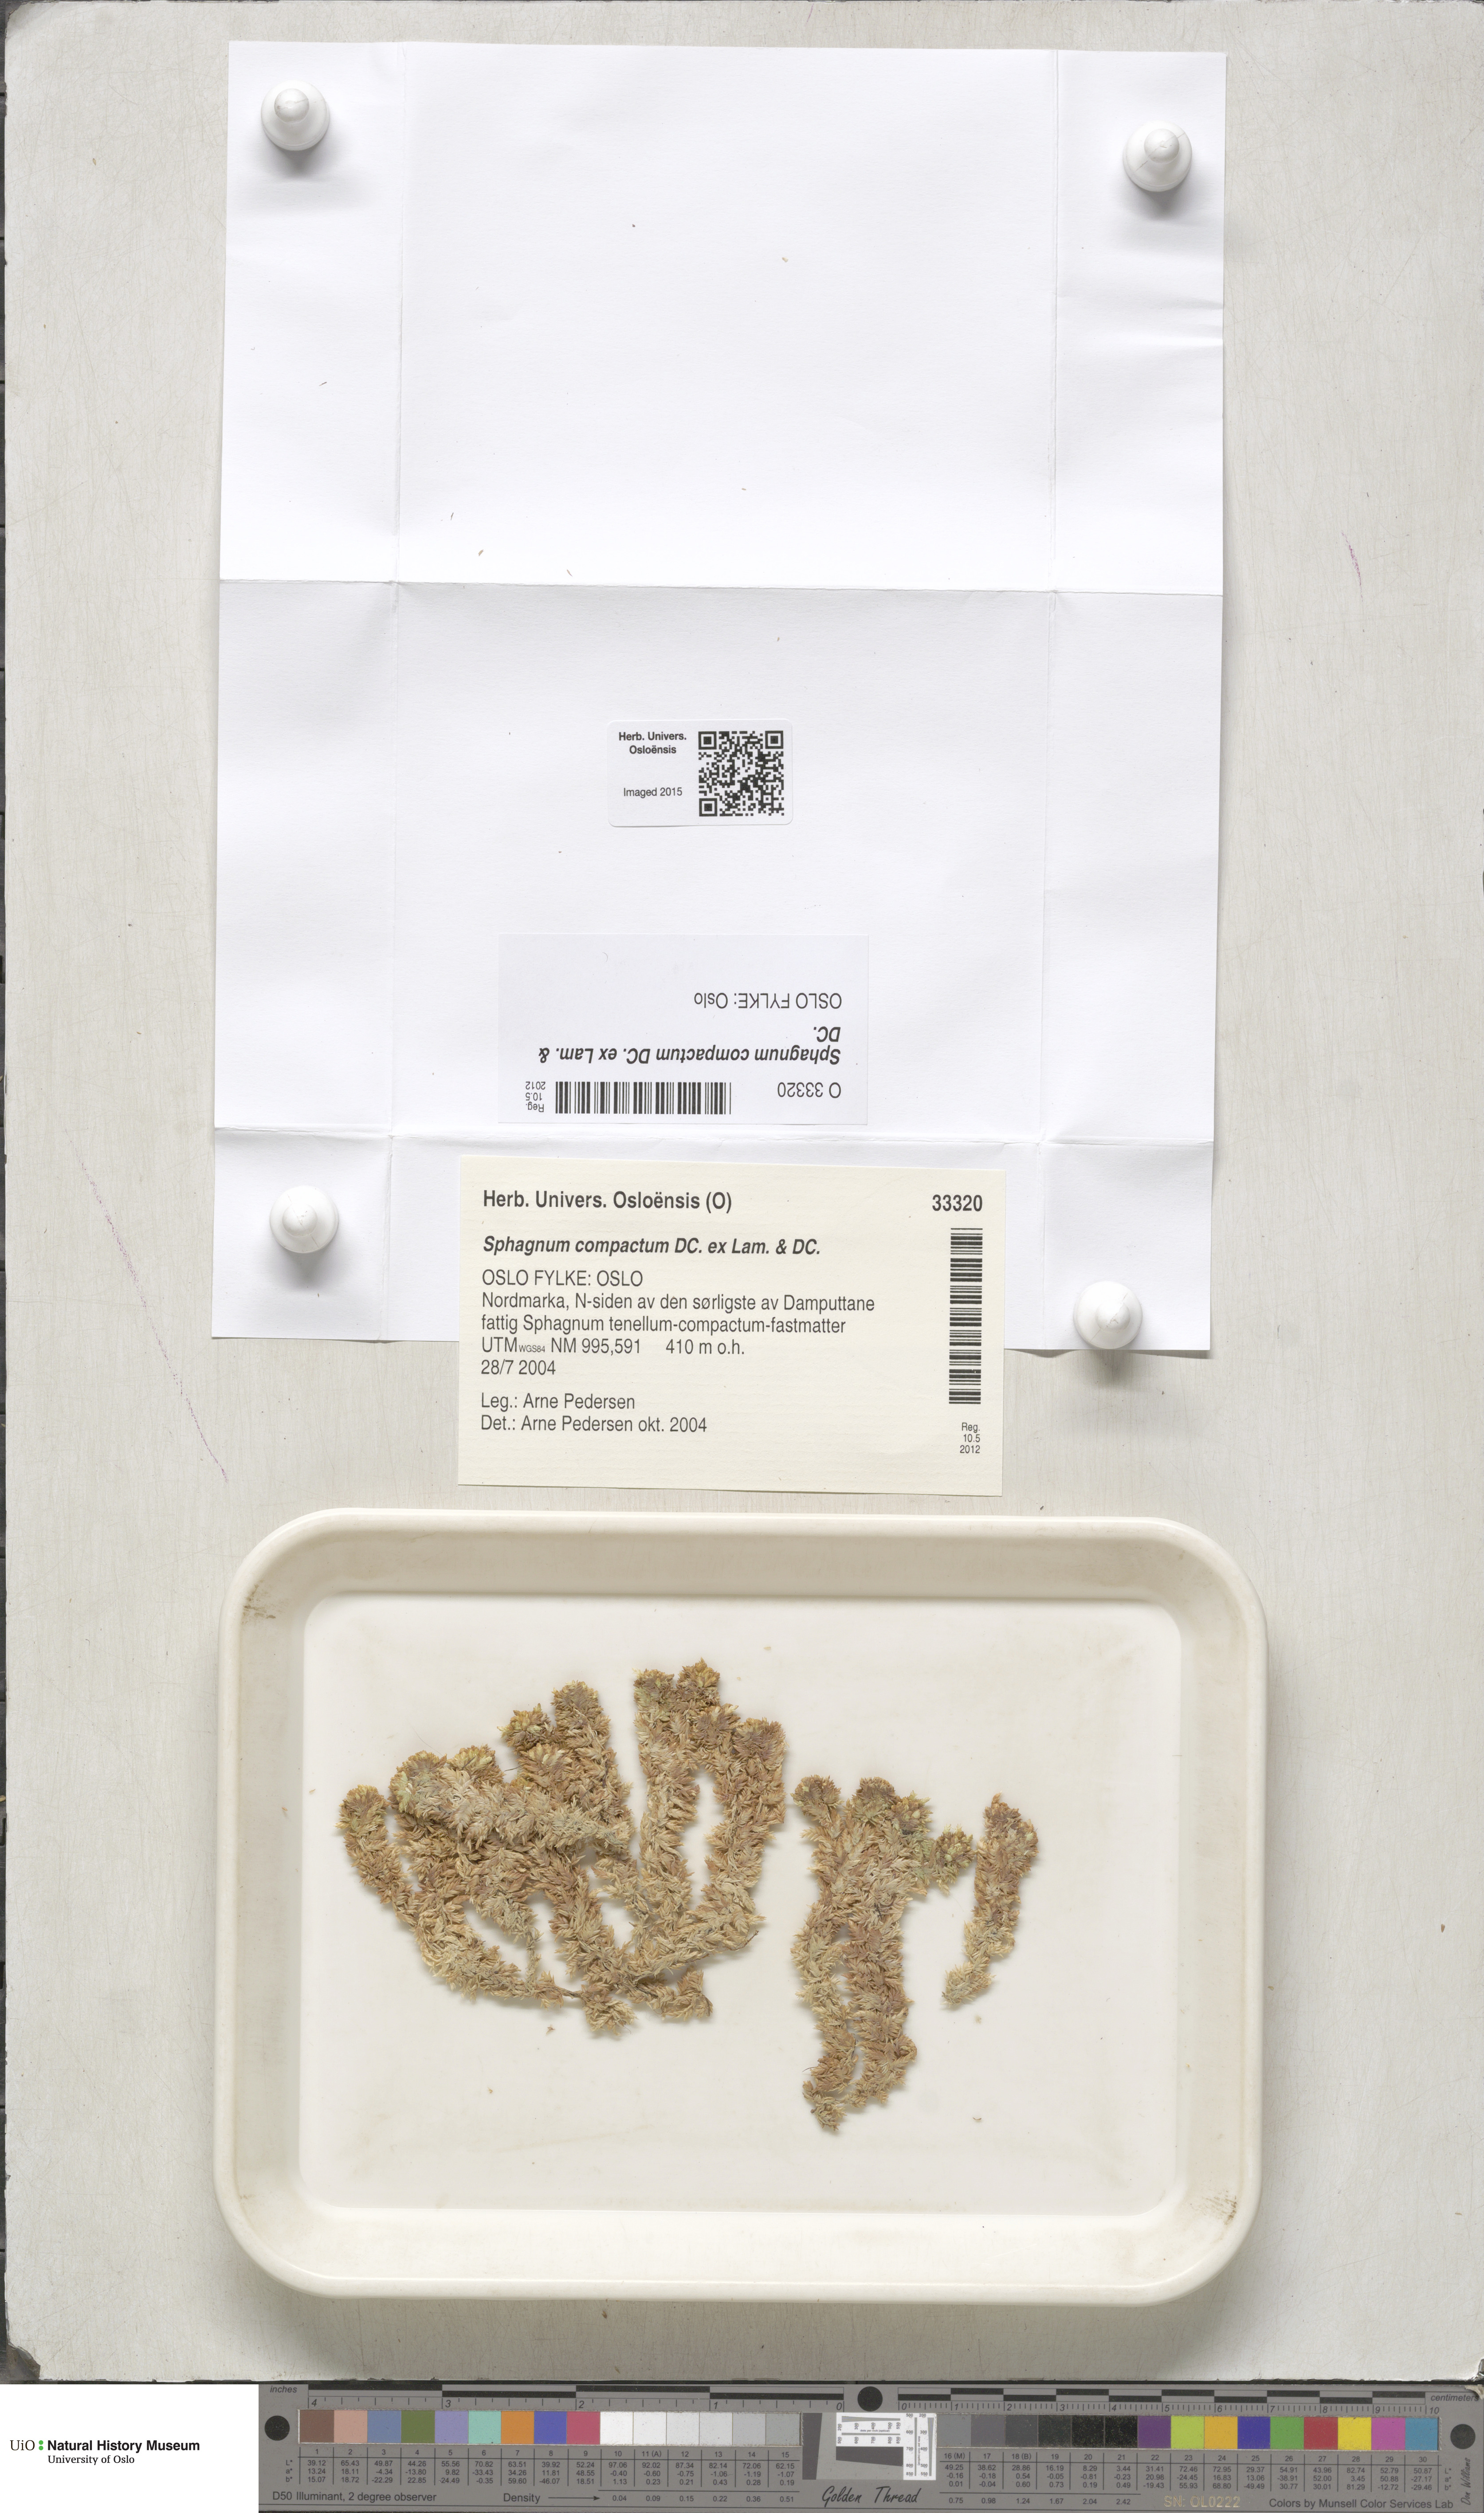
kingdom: Plantae
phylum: Bryophyta
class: Sphagnopsida
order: Sphagnales
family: Sphagnaceae
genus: Sphagnum
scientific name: Sphagnum compactum
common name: Compact peat moss
